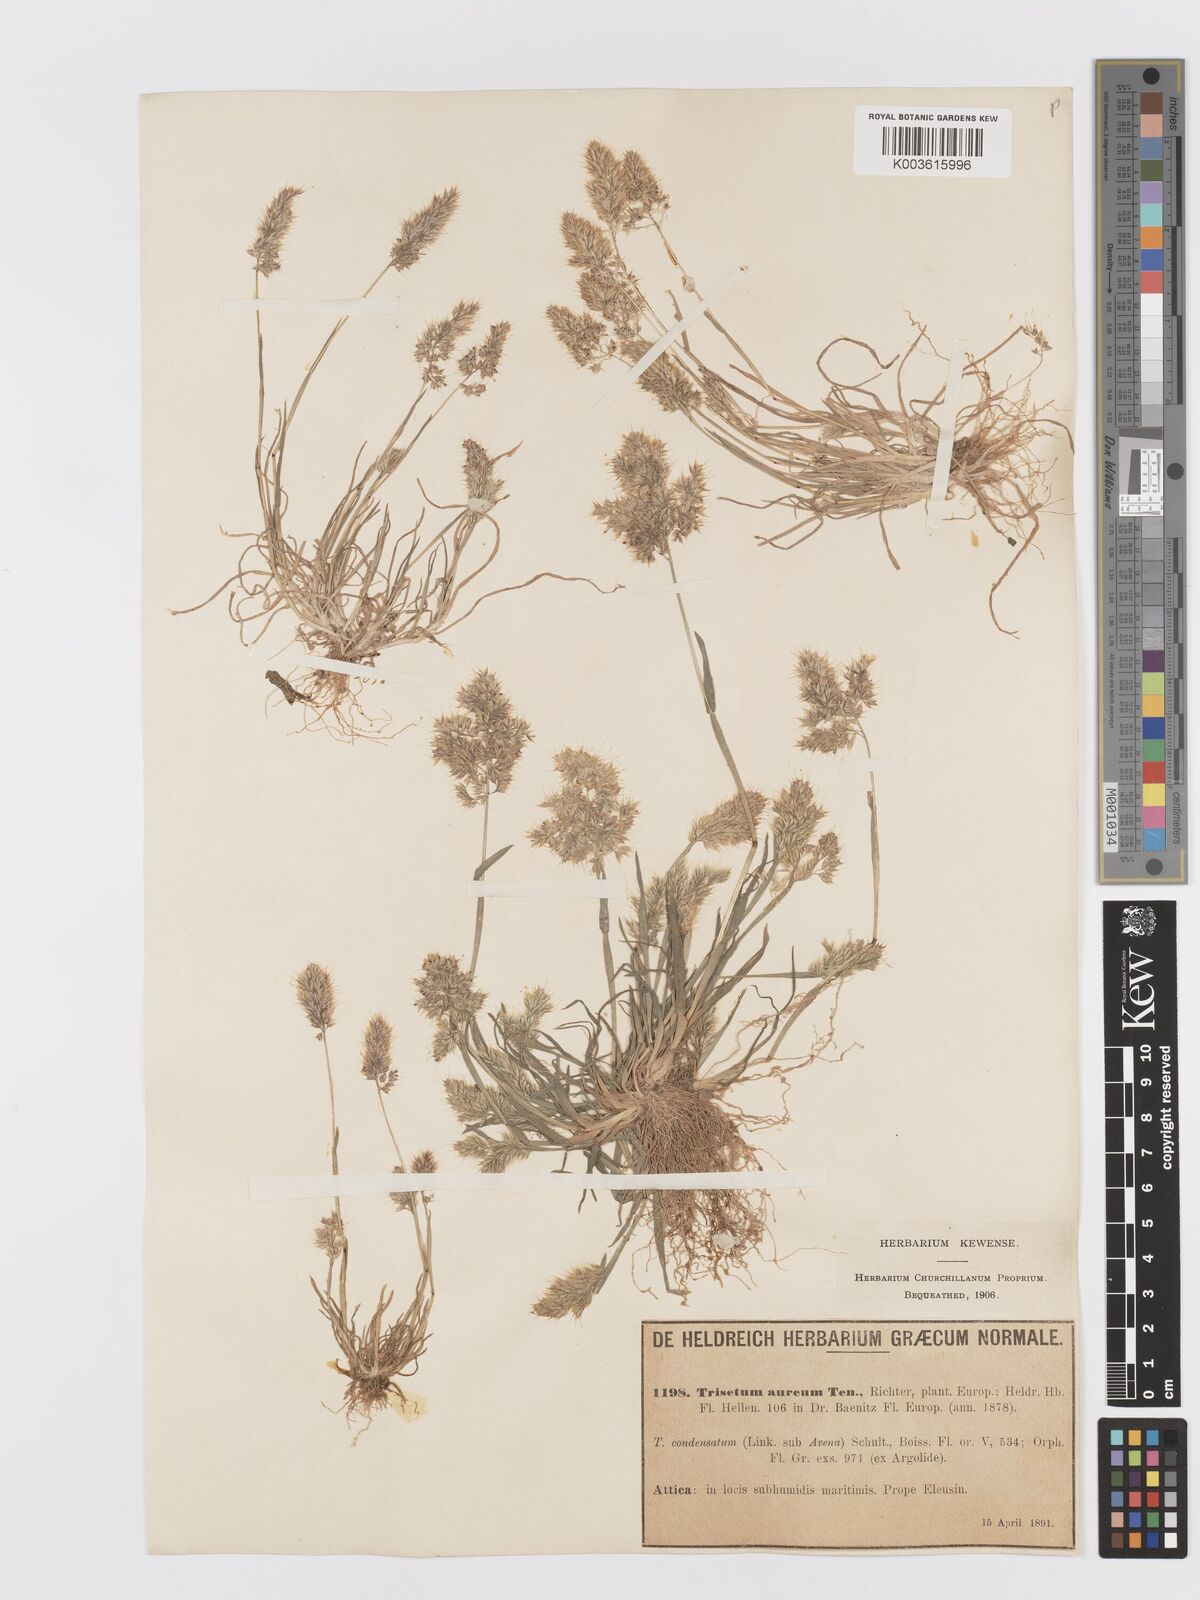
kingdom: Plantae
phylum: Tracheophyta
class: Liliopsida
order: Poales
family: Poaceae
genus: Trisetaria
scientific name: Trisetaria aurea
